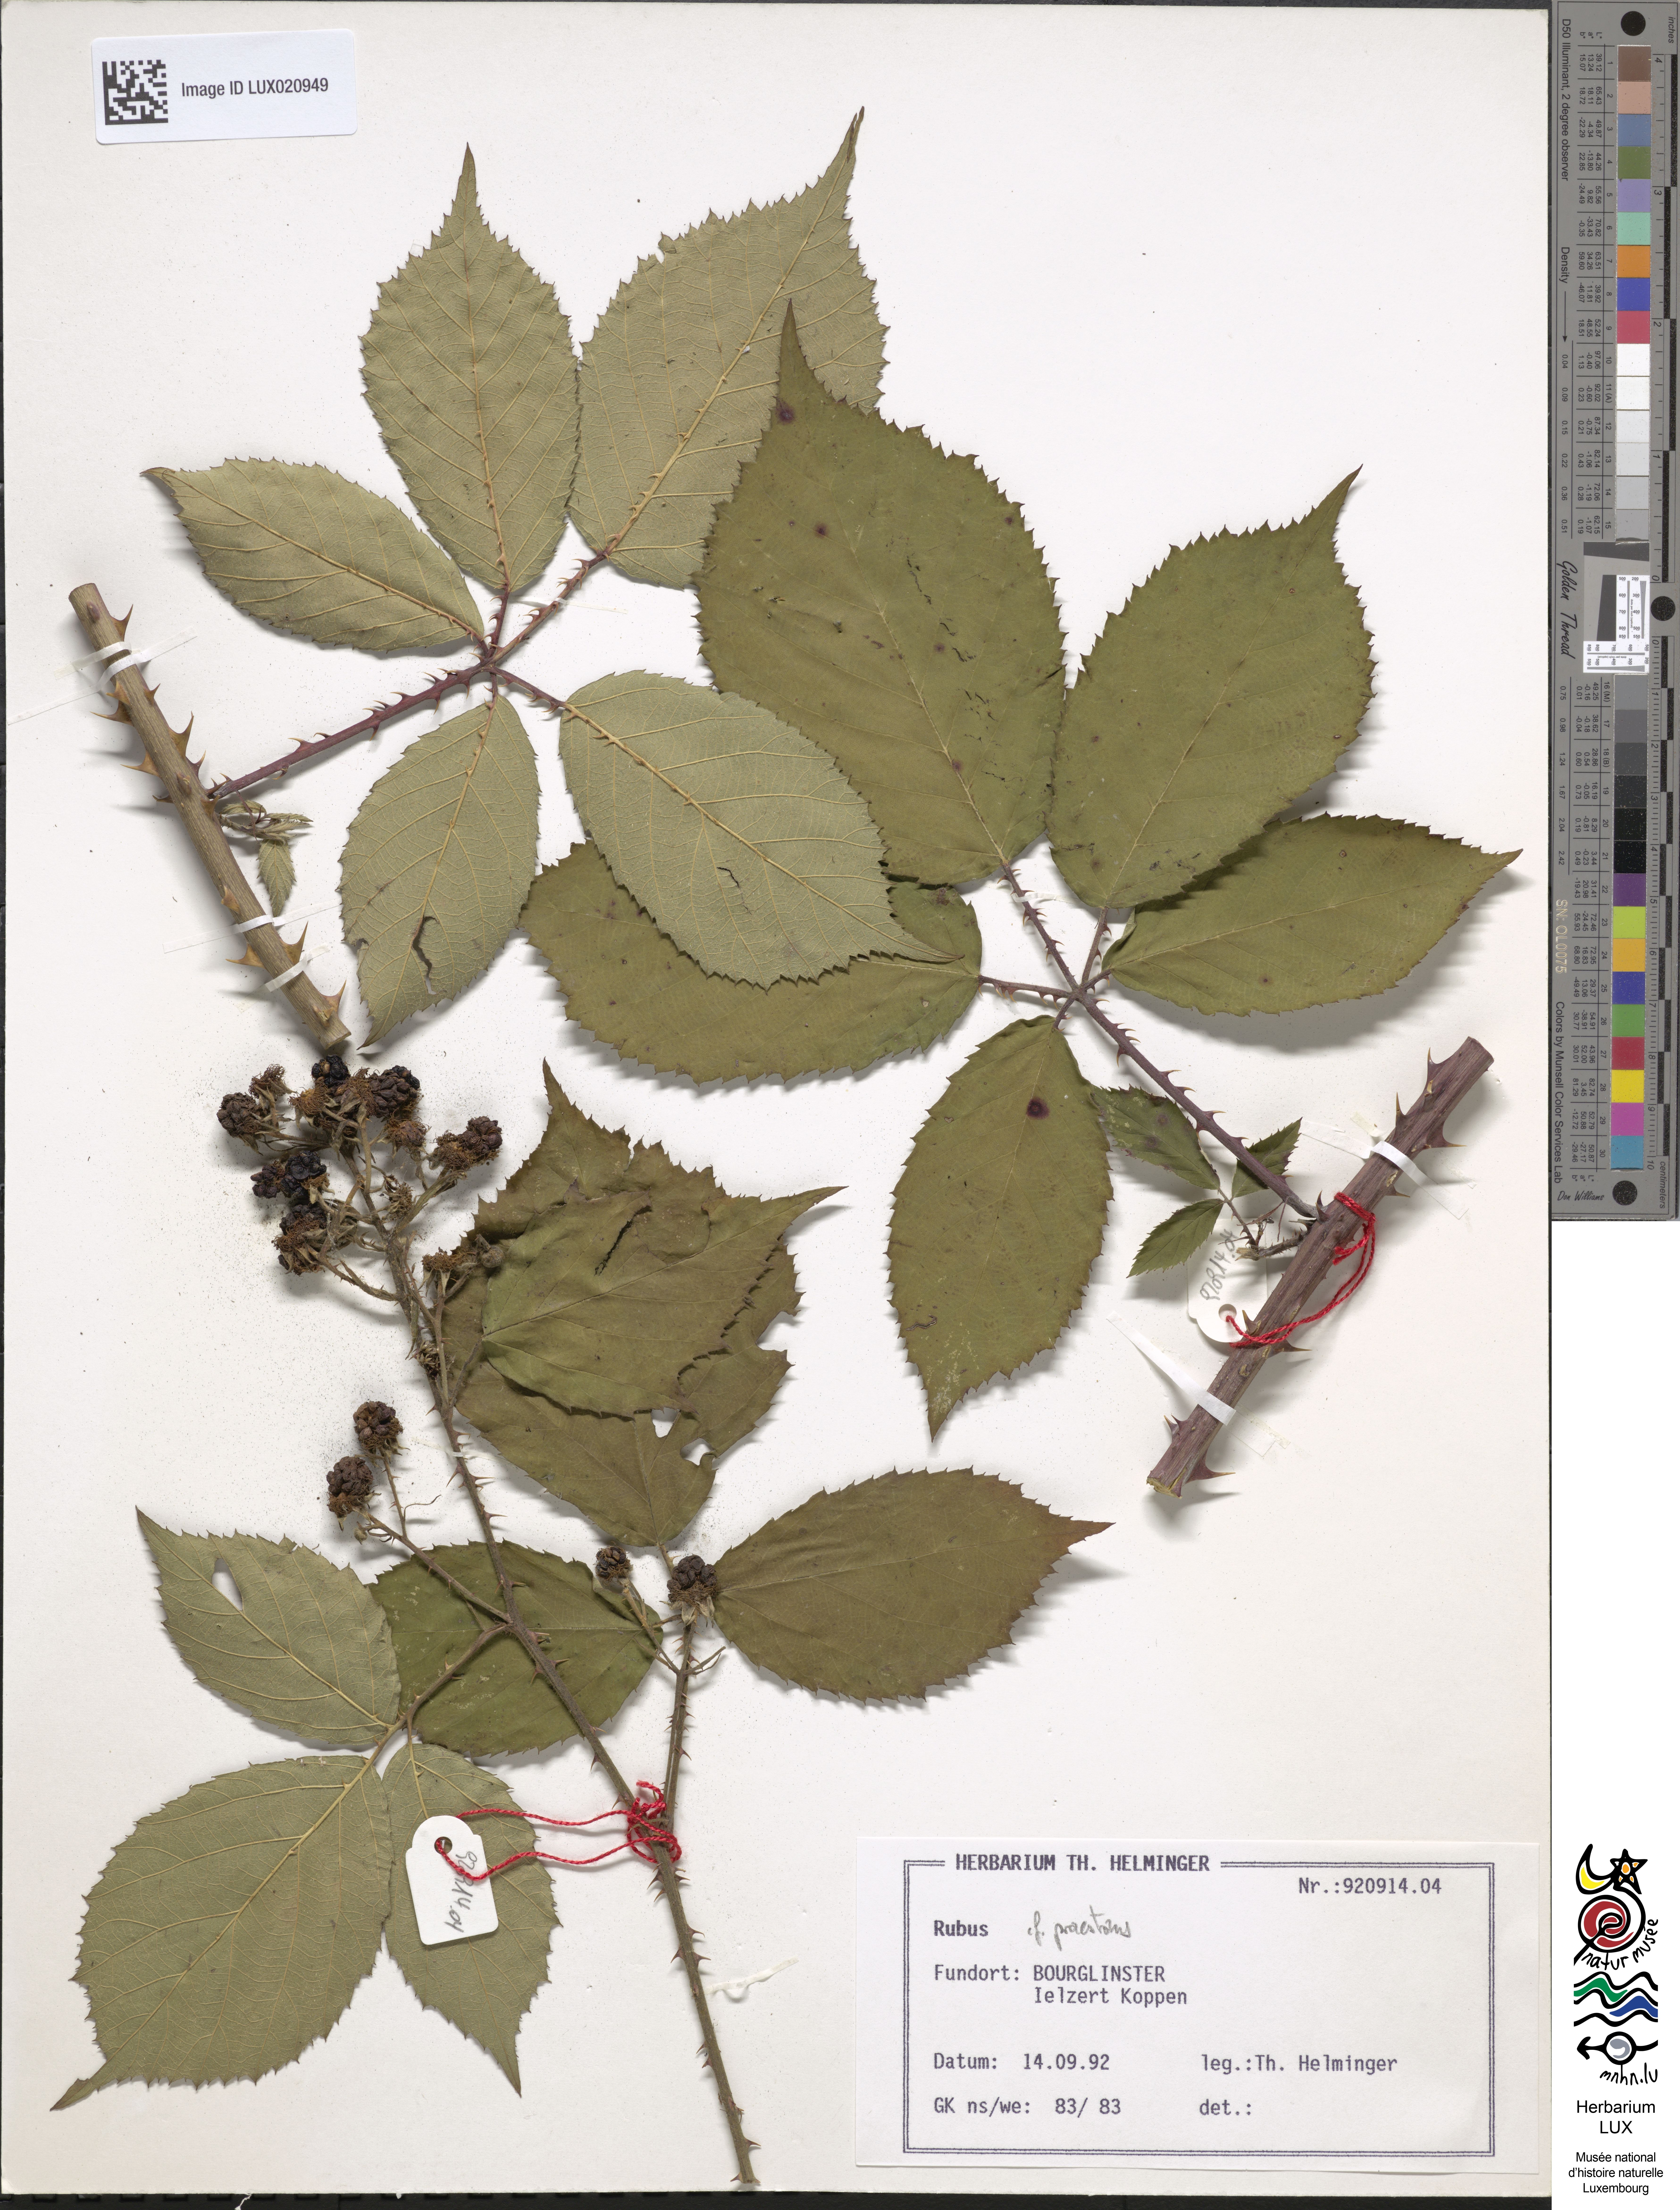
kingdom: Plantae
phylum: Tracheophyta
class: Magnoliopsida
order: Rosales
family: Rosaceae
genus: Rubus
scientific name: Rubus praestans
